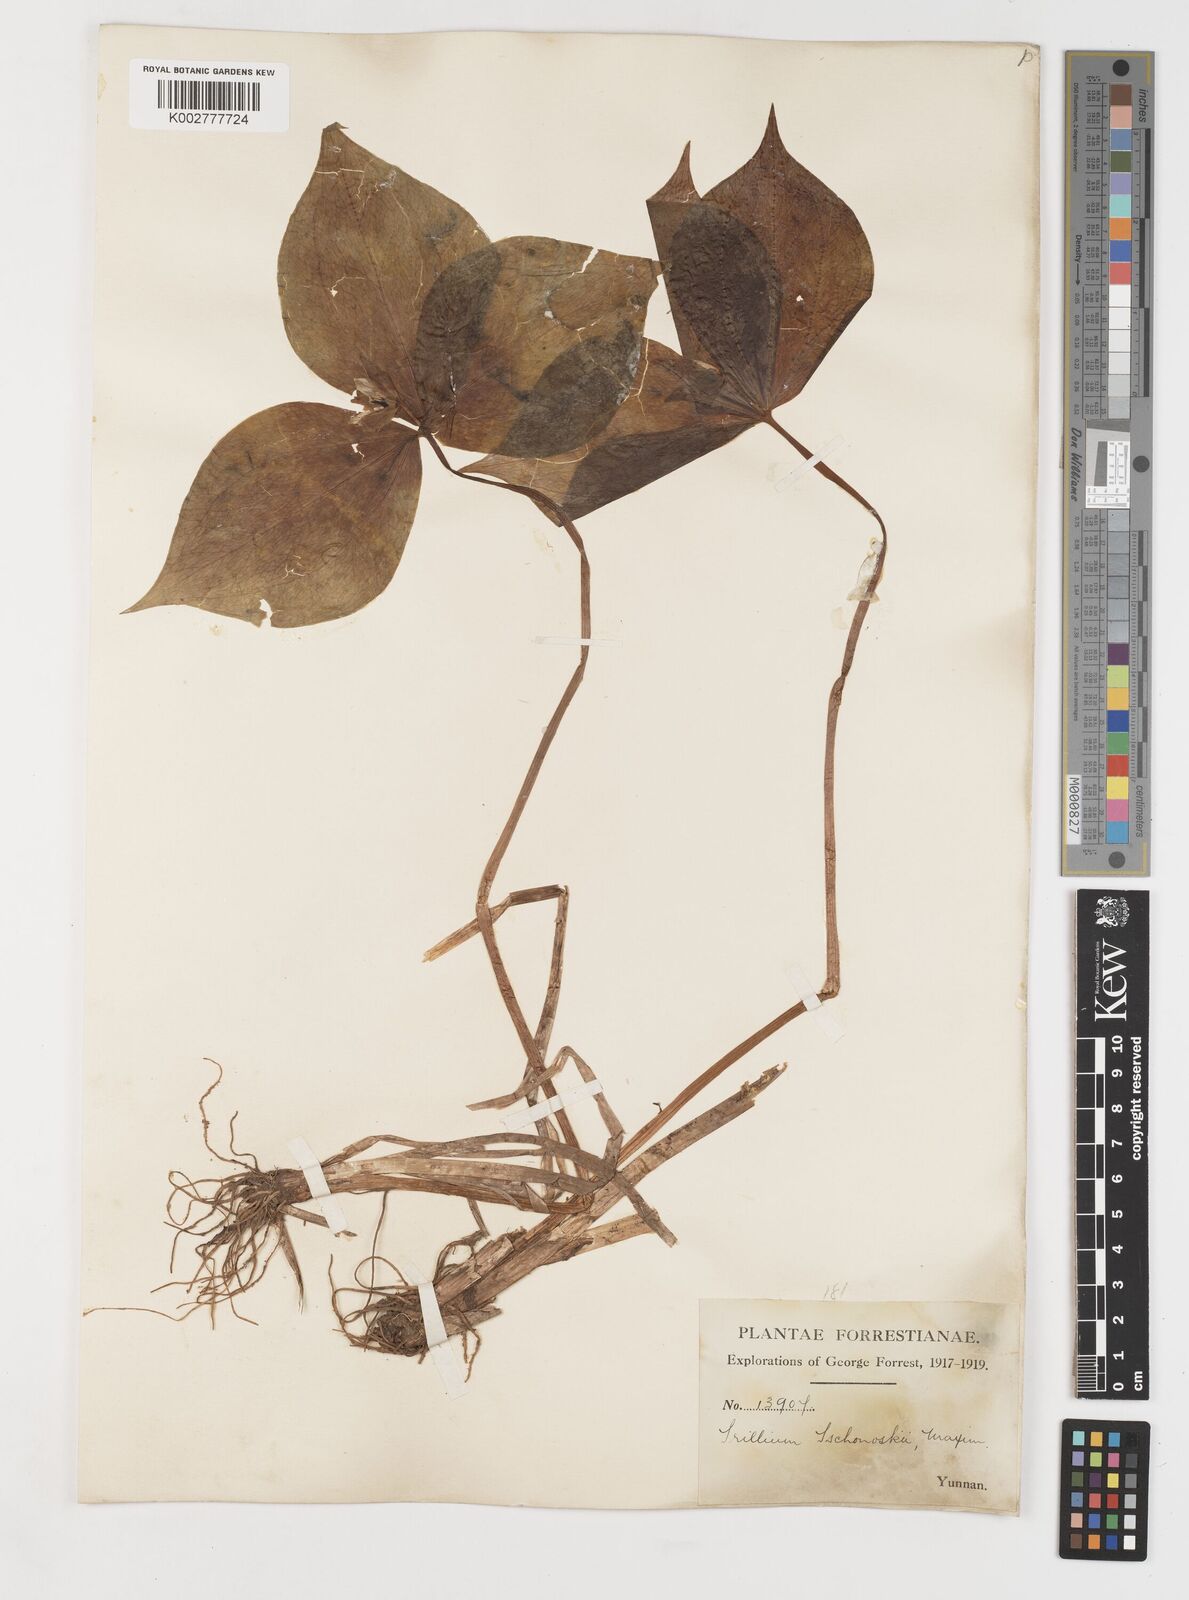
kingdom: Plantae
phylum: Tracheophyta
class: Liliopsida
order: Liliales
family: Melanthiaceae
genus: Trillium
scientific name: Trillium tschonoskii
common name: A pearl on head
